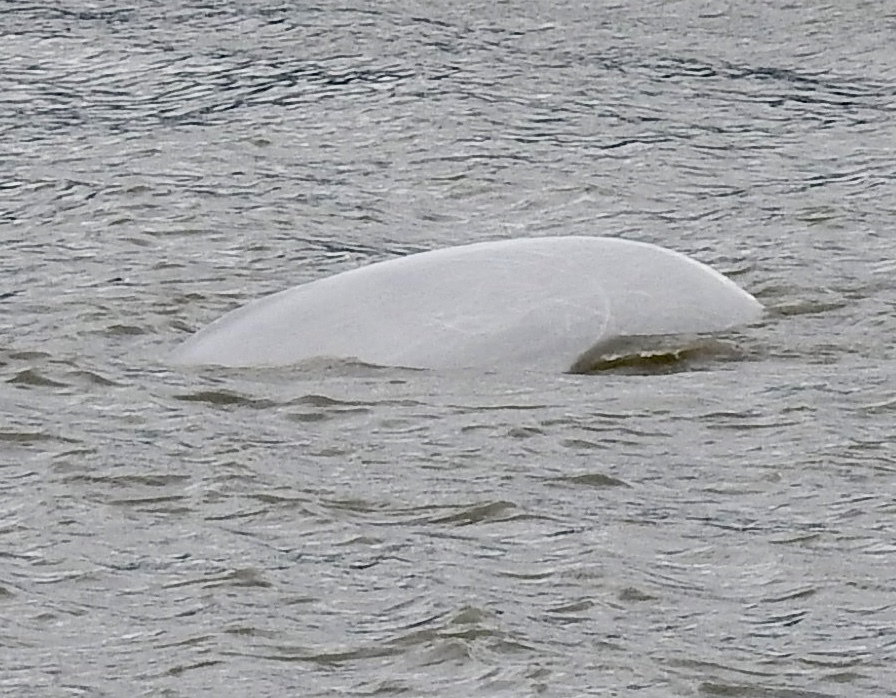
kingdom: Animalia
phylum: Chordata
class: Mammalia
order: Cetacea
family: Monodontidae
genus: Delphinapterus
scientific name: Delphinapterus leucas
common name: Beluga
